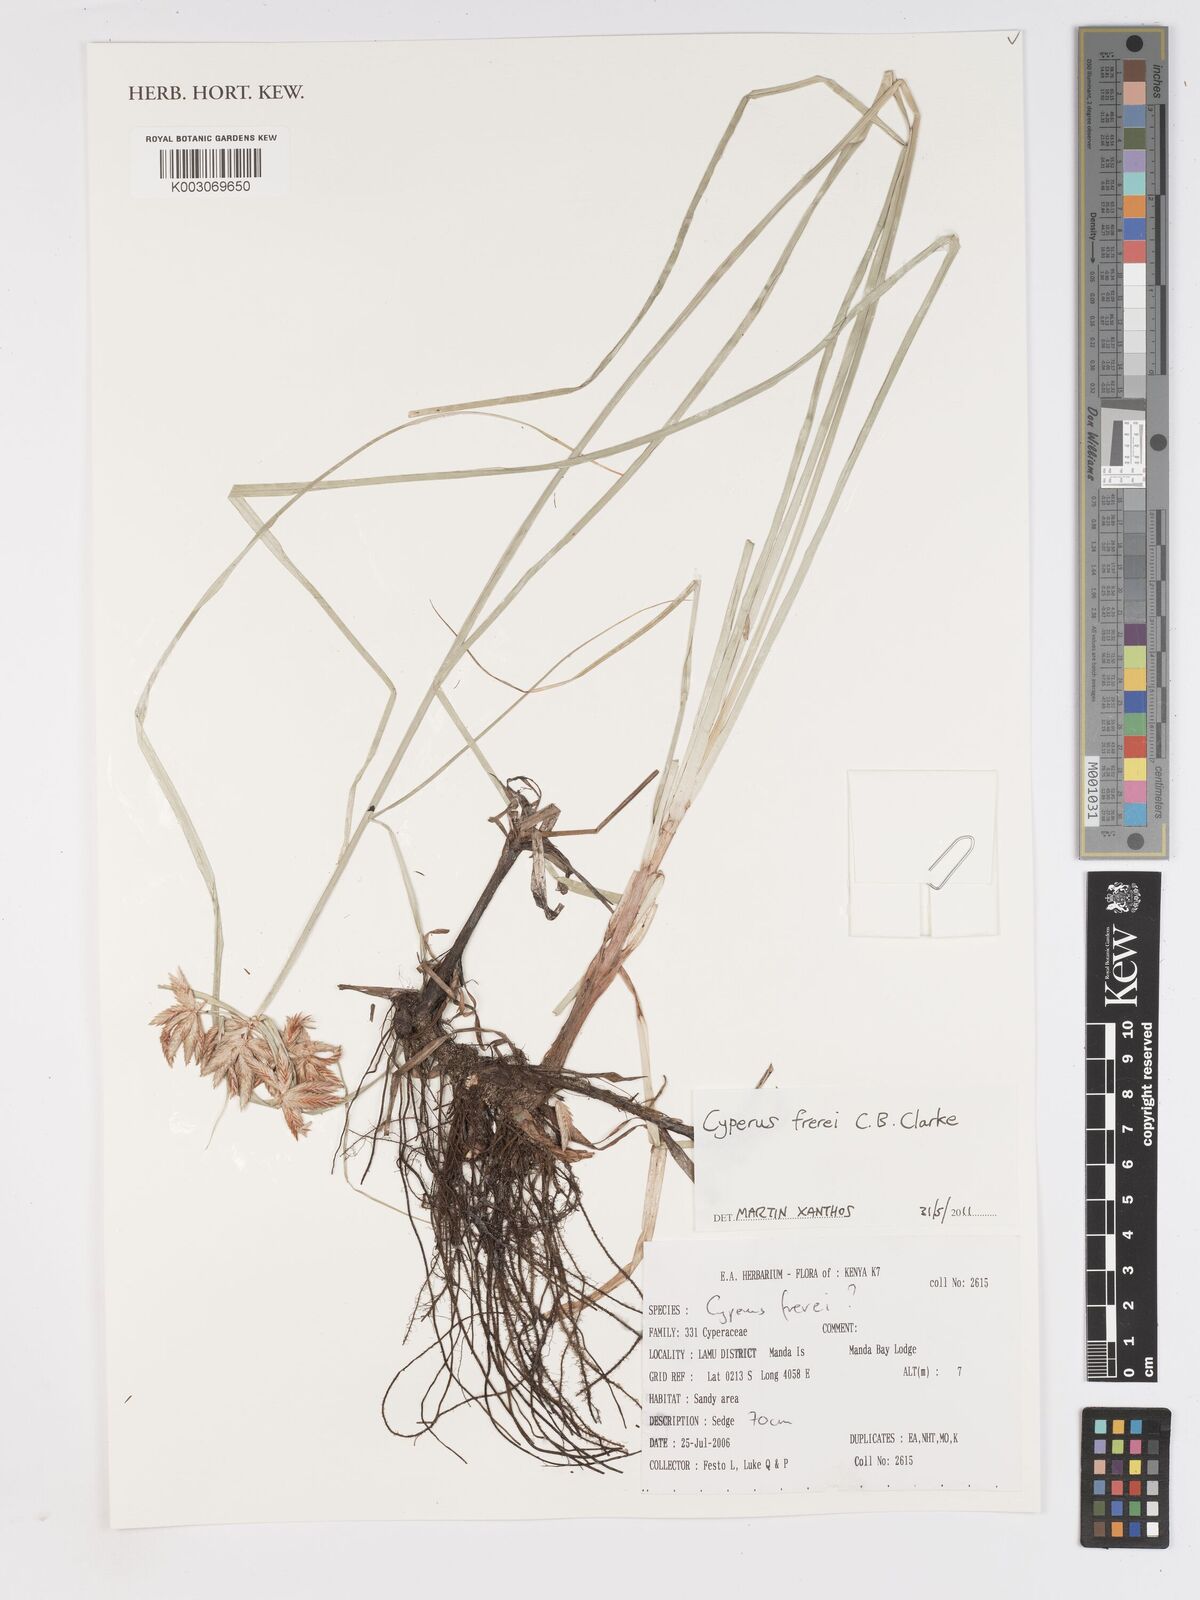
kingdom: Plantae
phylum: Tracheophyta
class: Liliopsida
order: Poales
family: Cyperaceae
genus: Cyperus
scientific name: Cyperus crassipes
